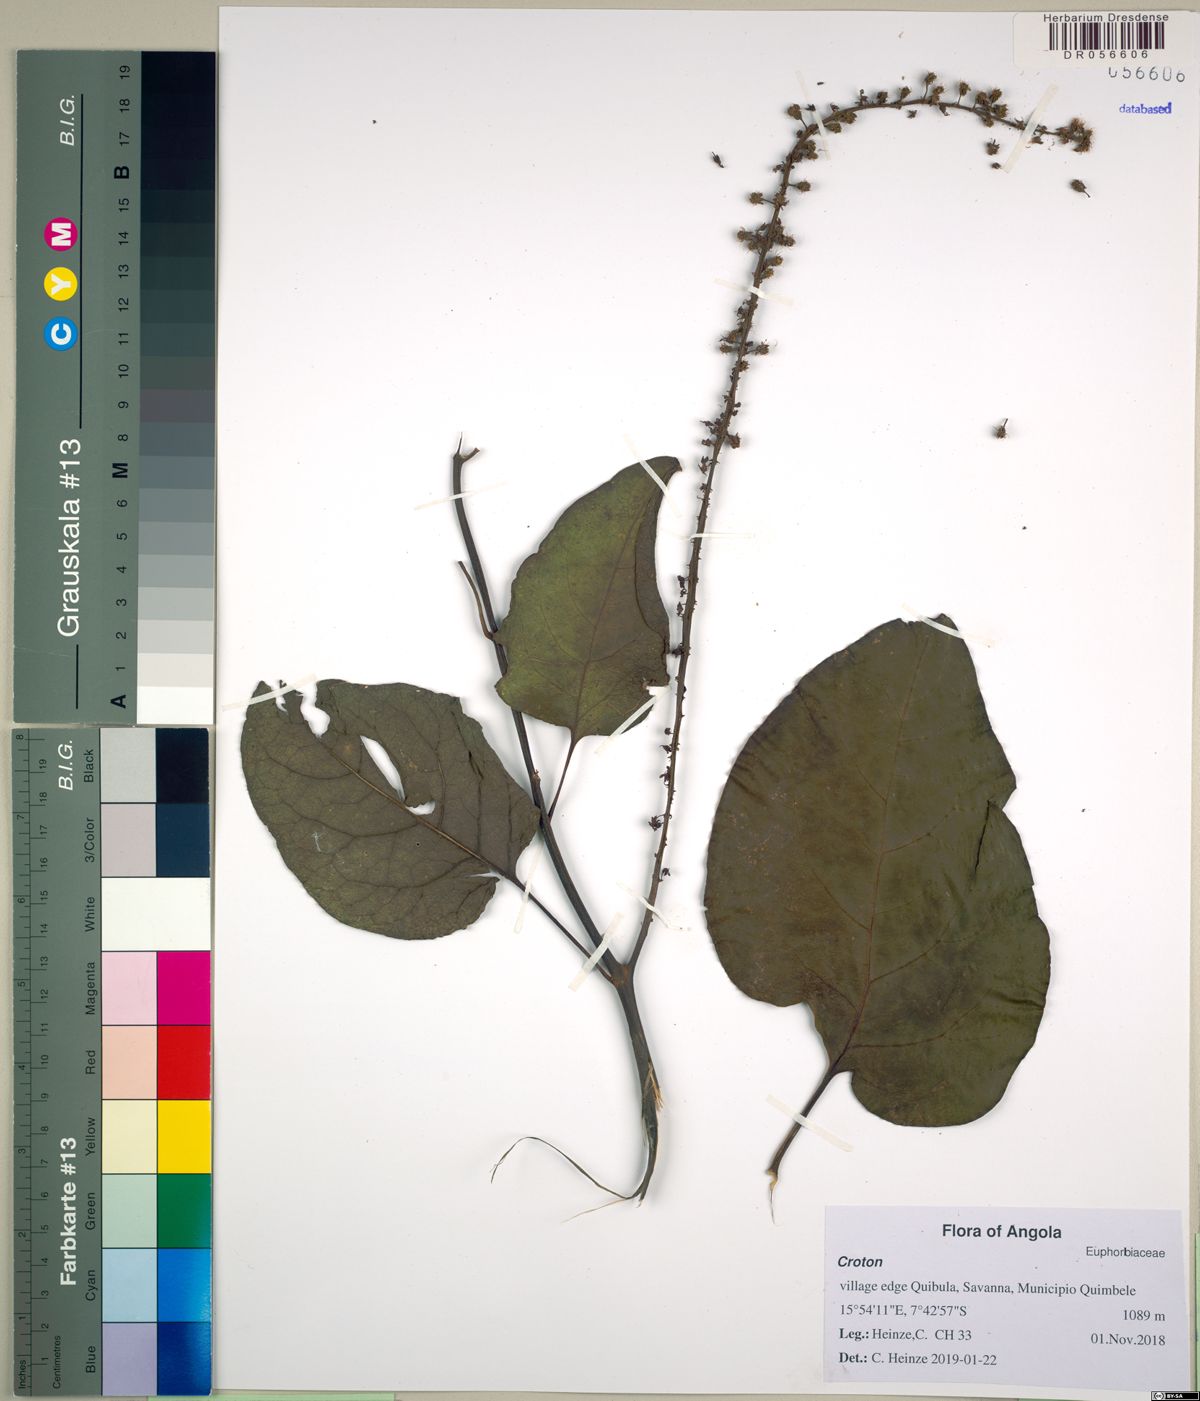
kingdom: Plantae
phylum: Tracheophyta
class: Magnoliopsida
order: Malpighiales
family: Euphorbiaceae
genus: Croton
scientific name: Croton
